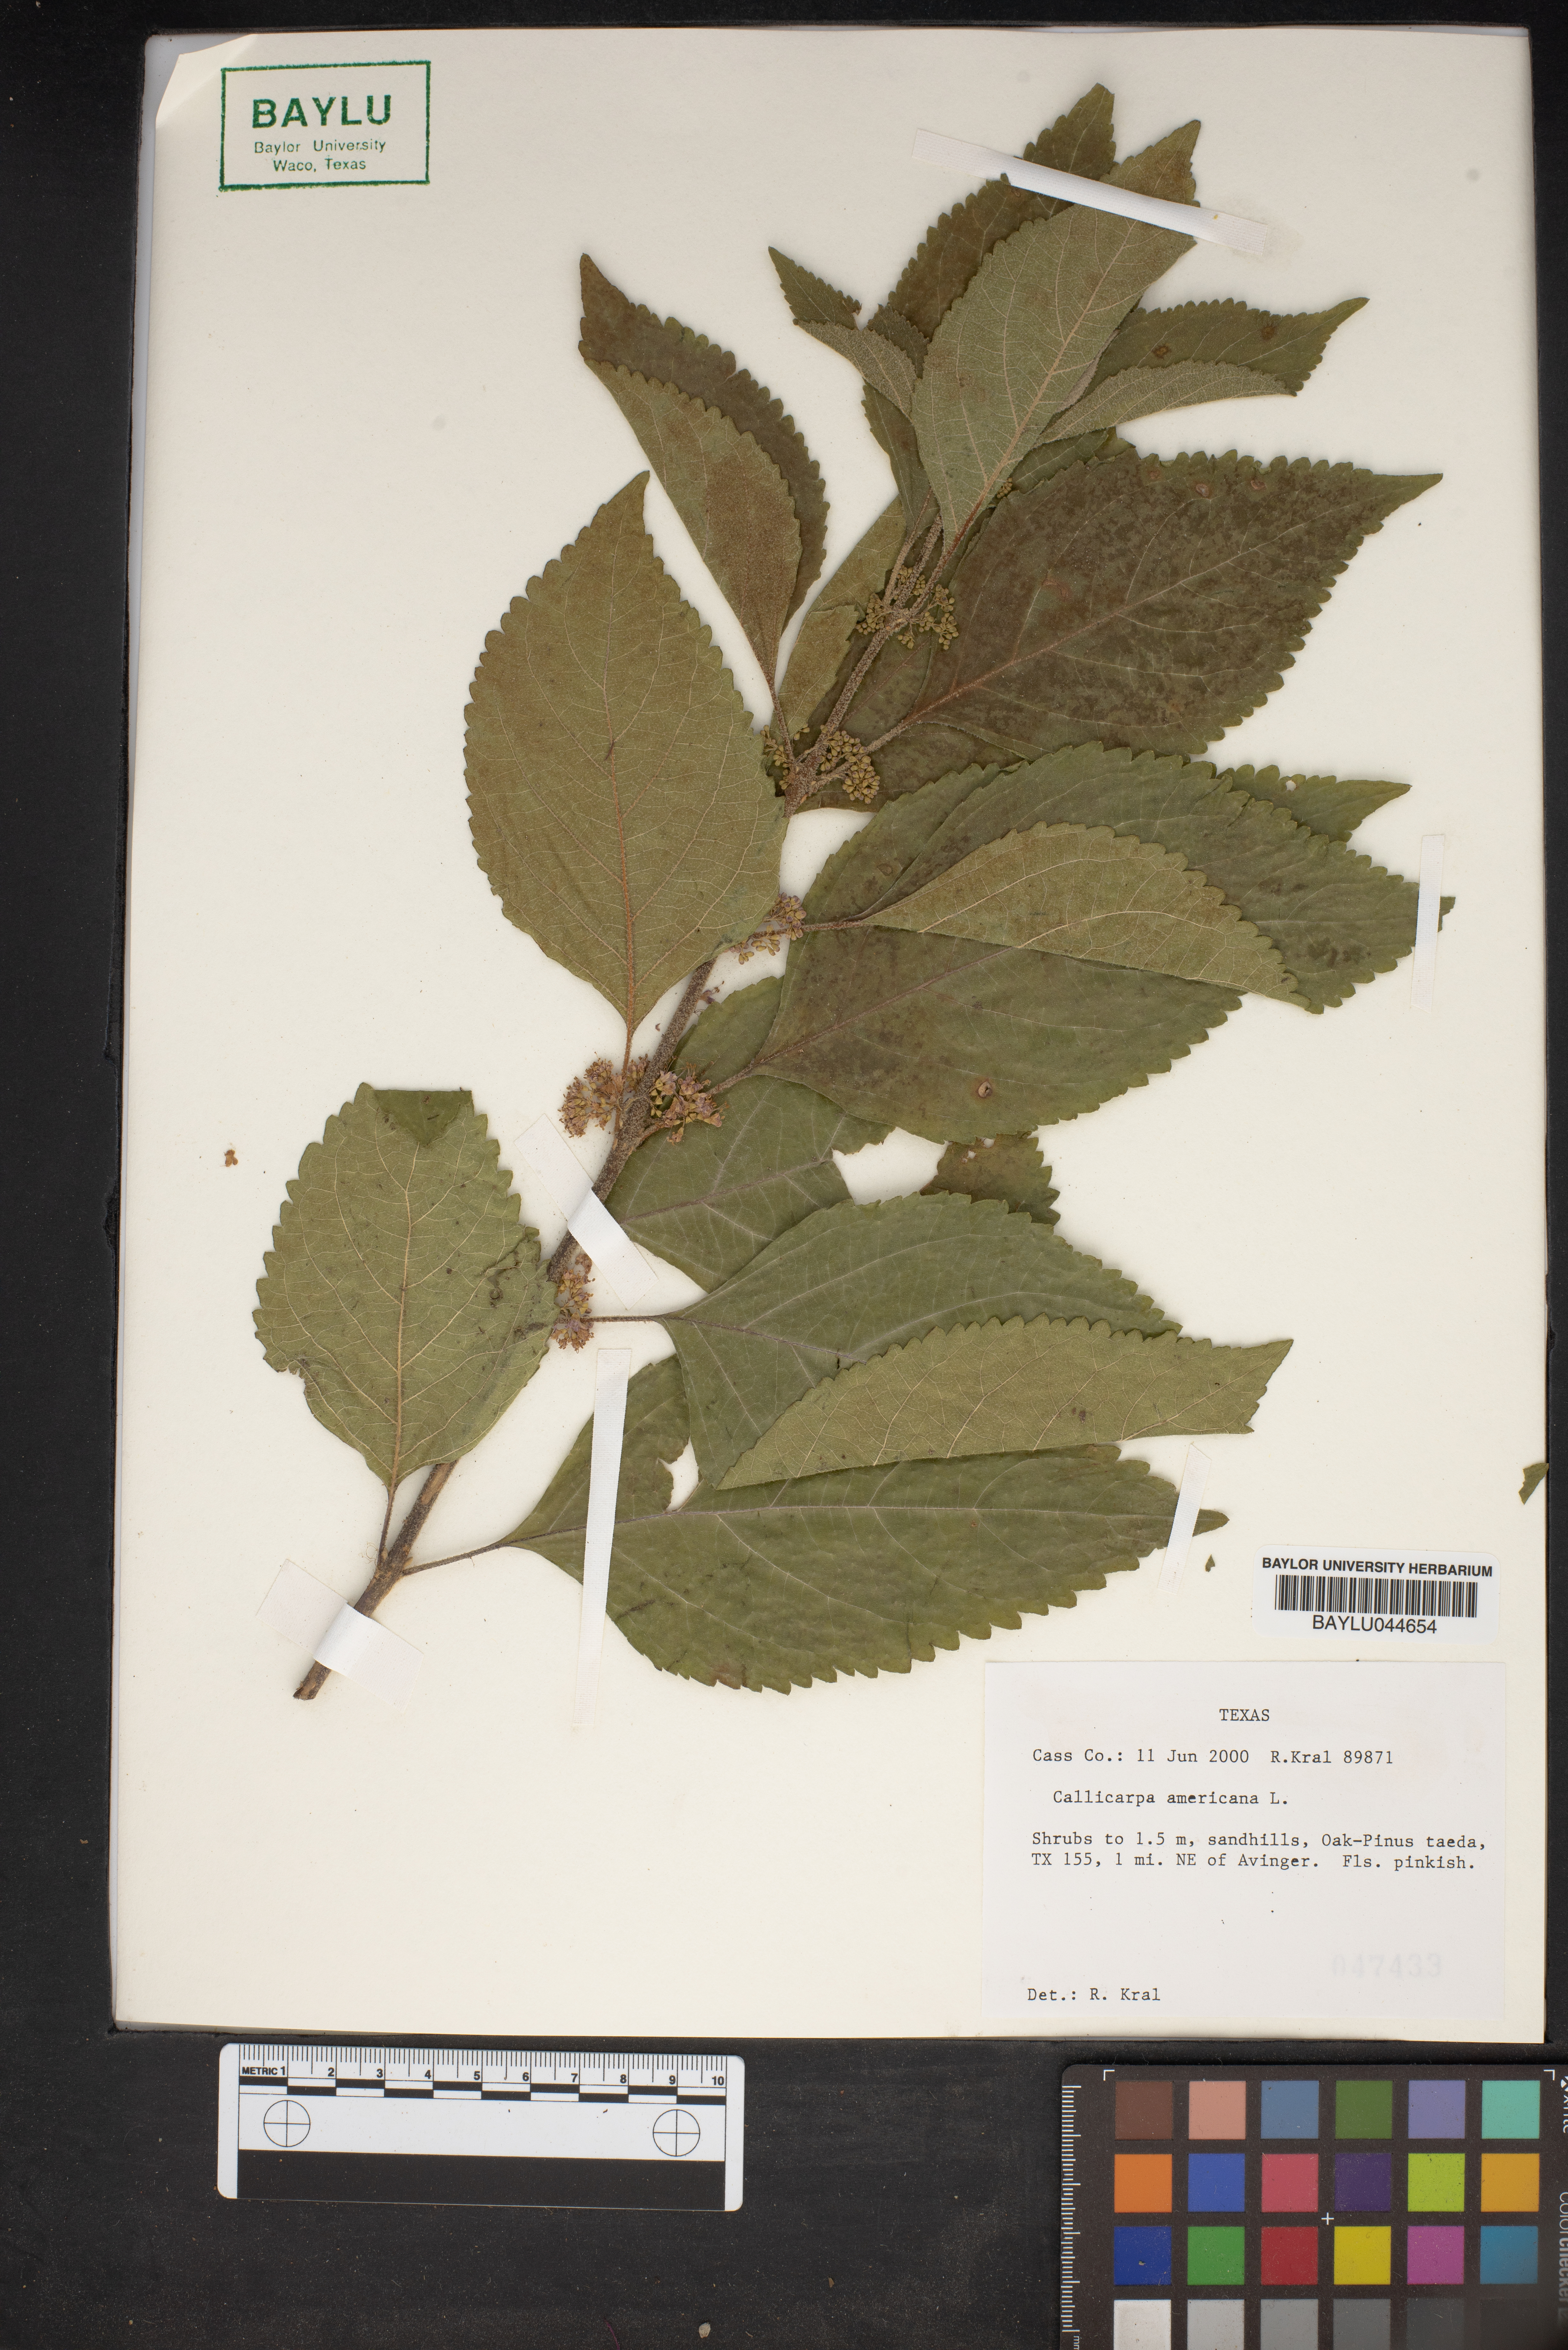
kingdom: Plantae
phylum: Tracheophyta
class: Magnoliopsida
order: Lamiales
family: Lamiaceae
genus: Callicarpa
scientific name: Callicarpa americana
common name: American beautyberry
